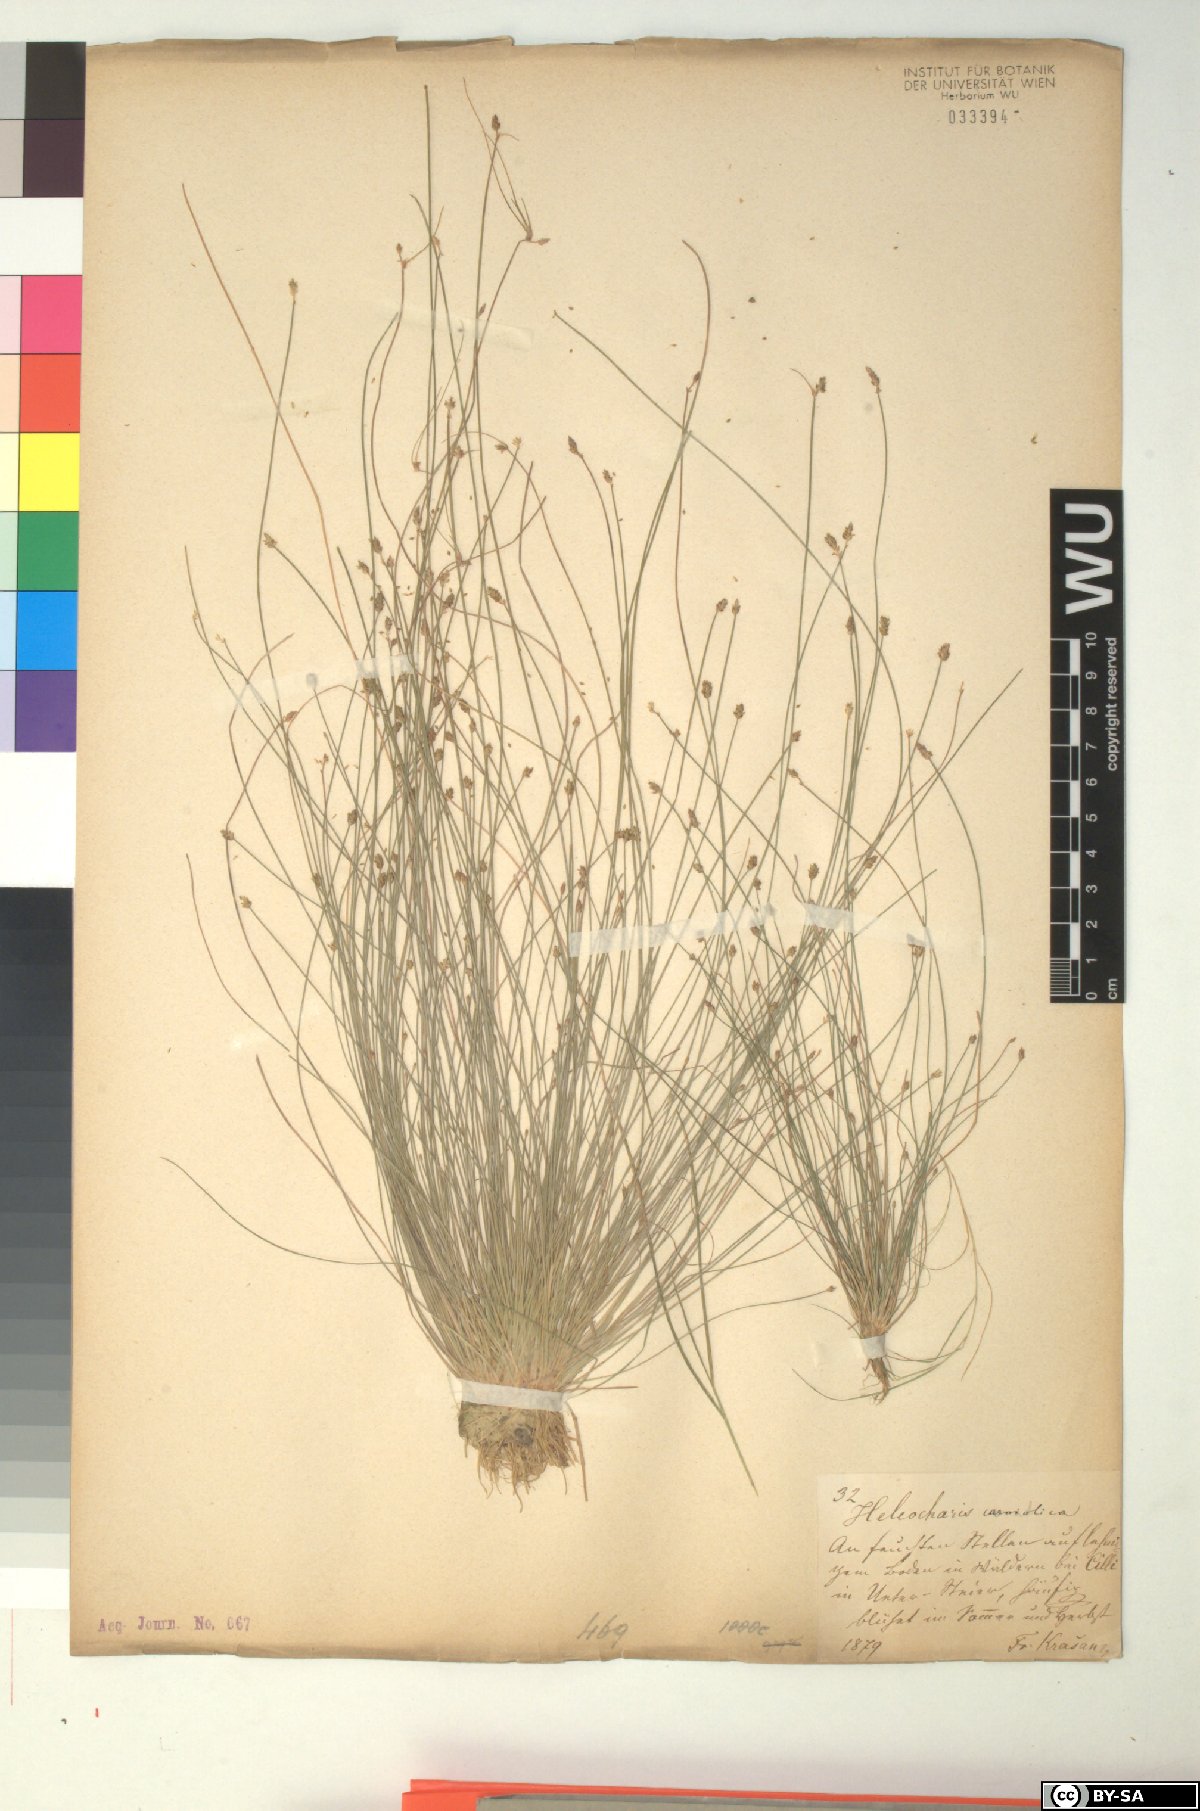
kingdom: Plantae
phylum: Tracheophyta
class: Liliopsida
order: Poales
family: Cyperaceae
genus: Eleocharis
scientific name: Eleocharis carniolica
